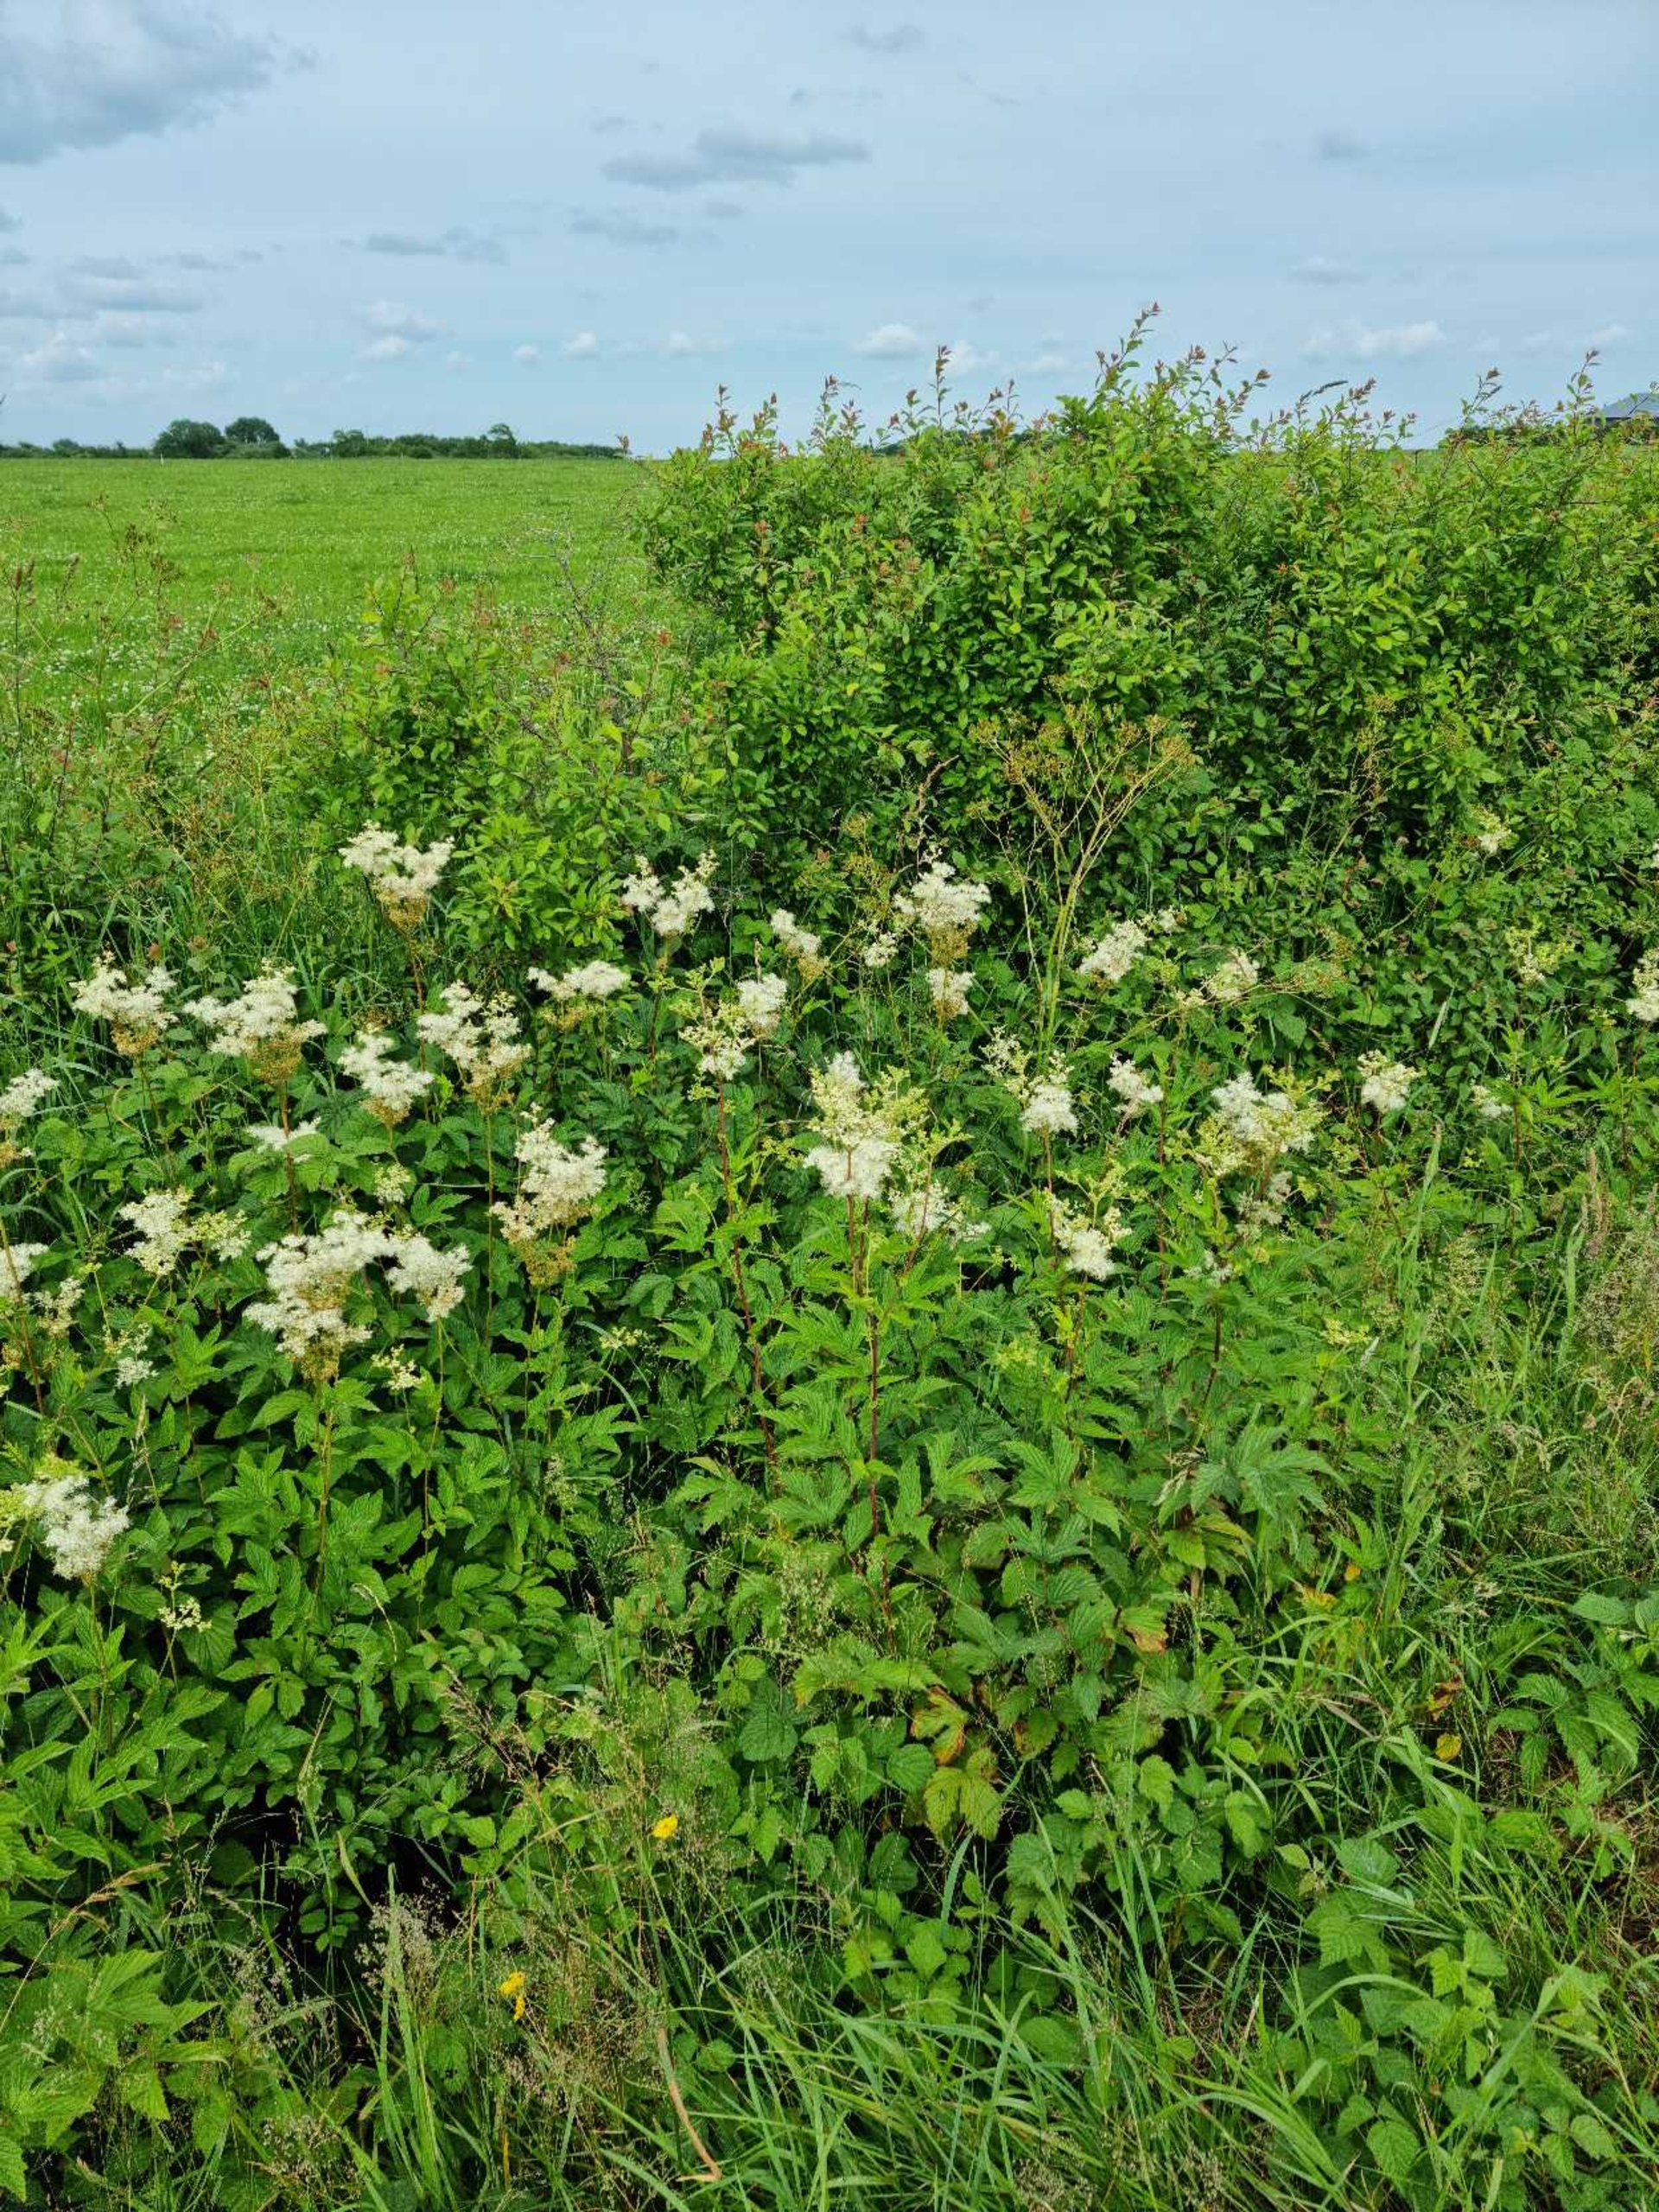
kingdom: Plantae
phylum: Tracheophyta
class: Magnoliopsida
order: Rosales
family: Rosaceae
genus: Filipendula
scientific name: Filipendula ulmaria
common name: Almindelig mjødurt
